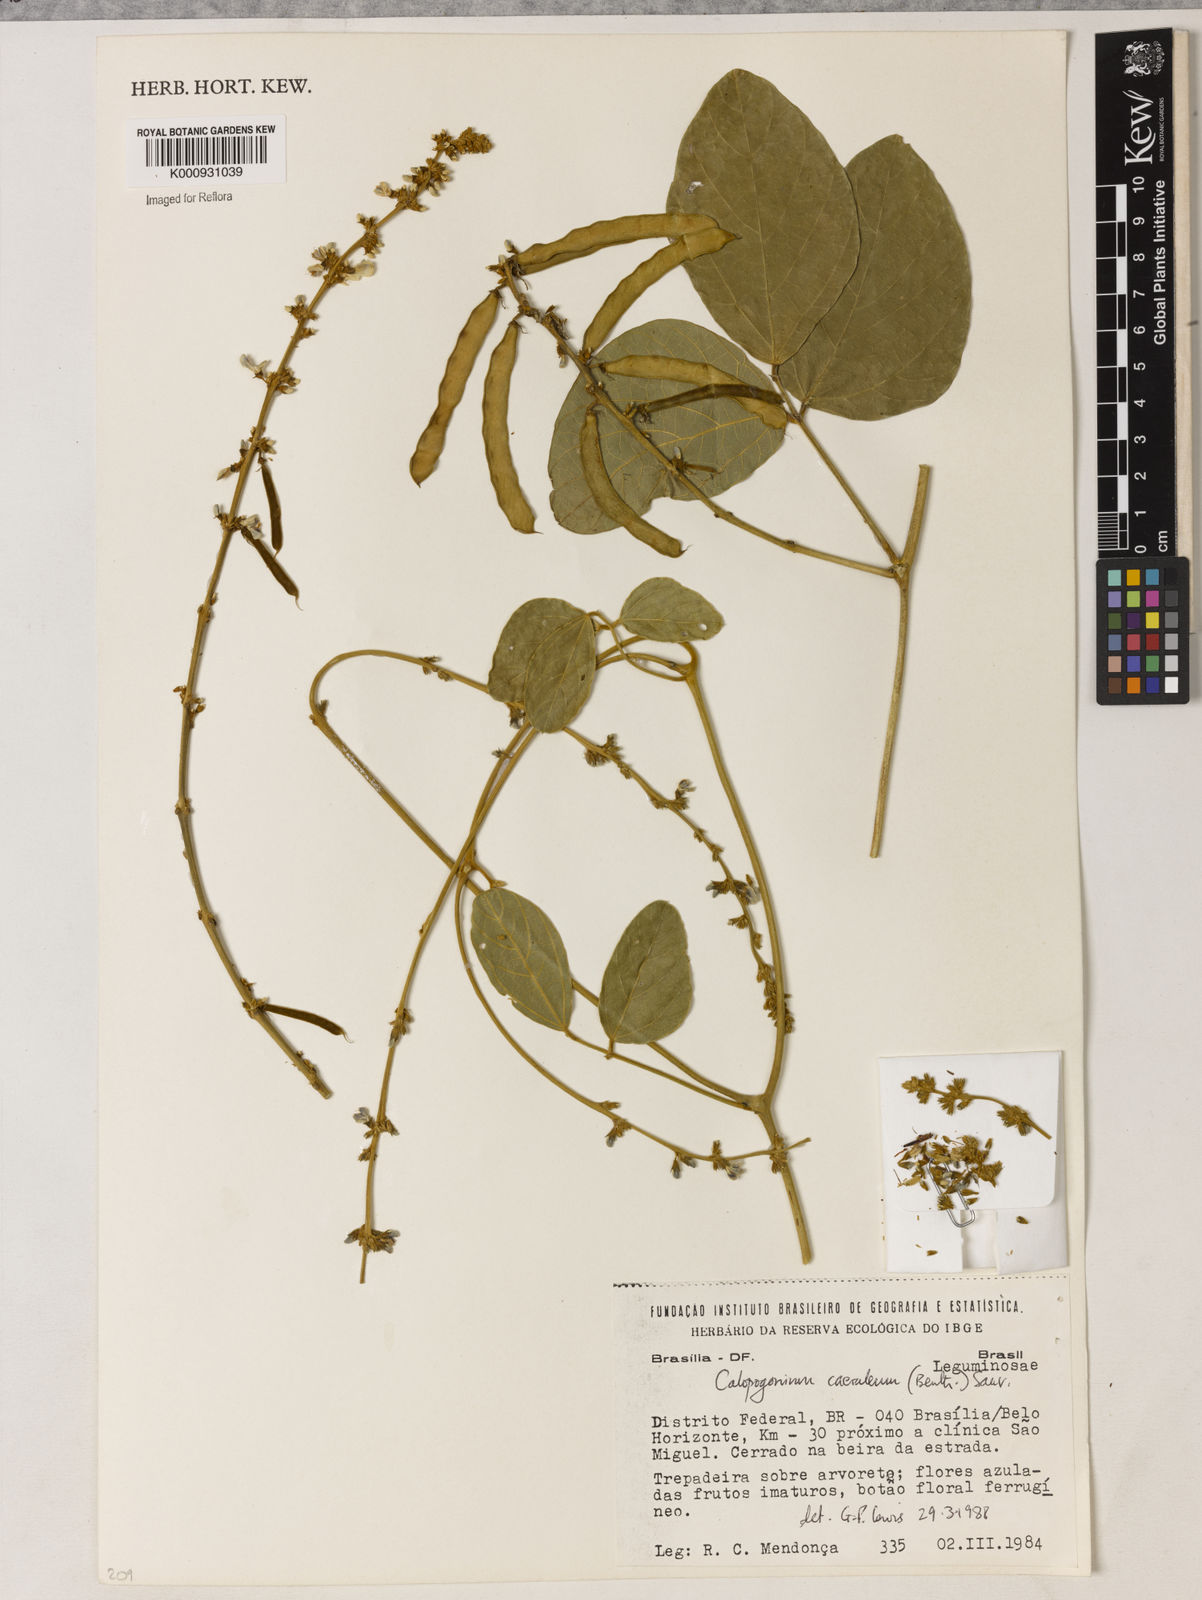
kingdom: Plantae
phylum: Tracheophyta
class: Magnoliopsida
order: Fabales
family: Fabaceae
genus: Calopogonium
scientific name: Calopogonium caeruleum
